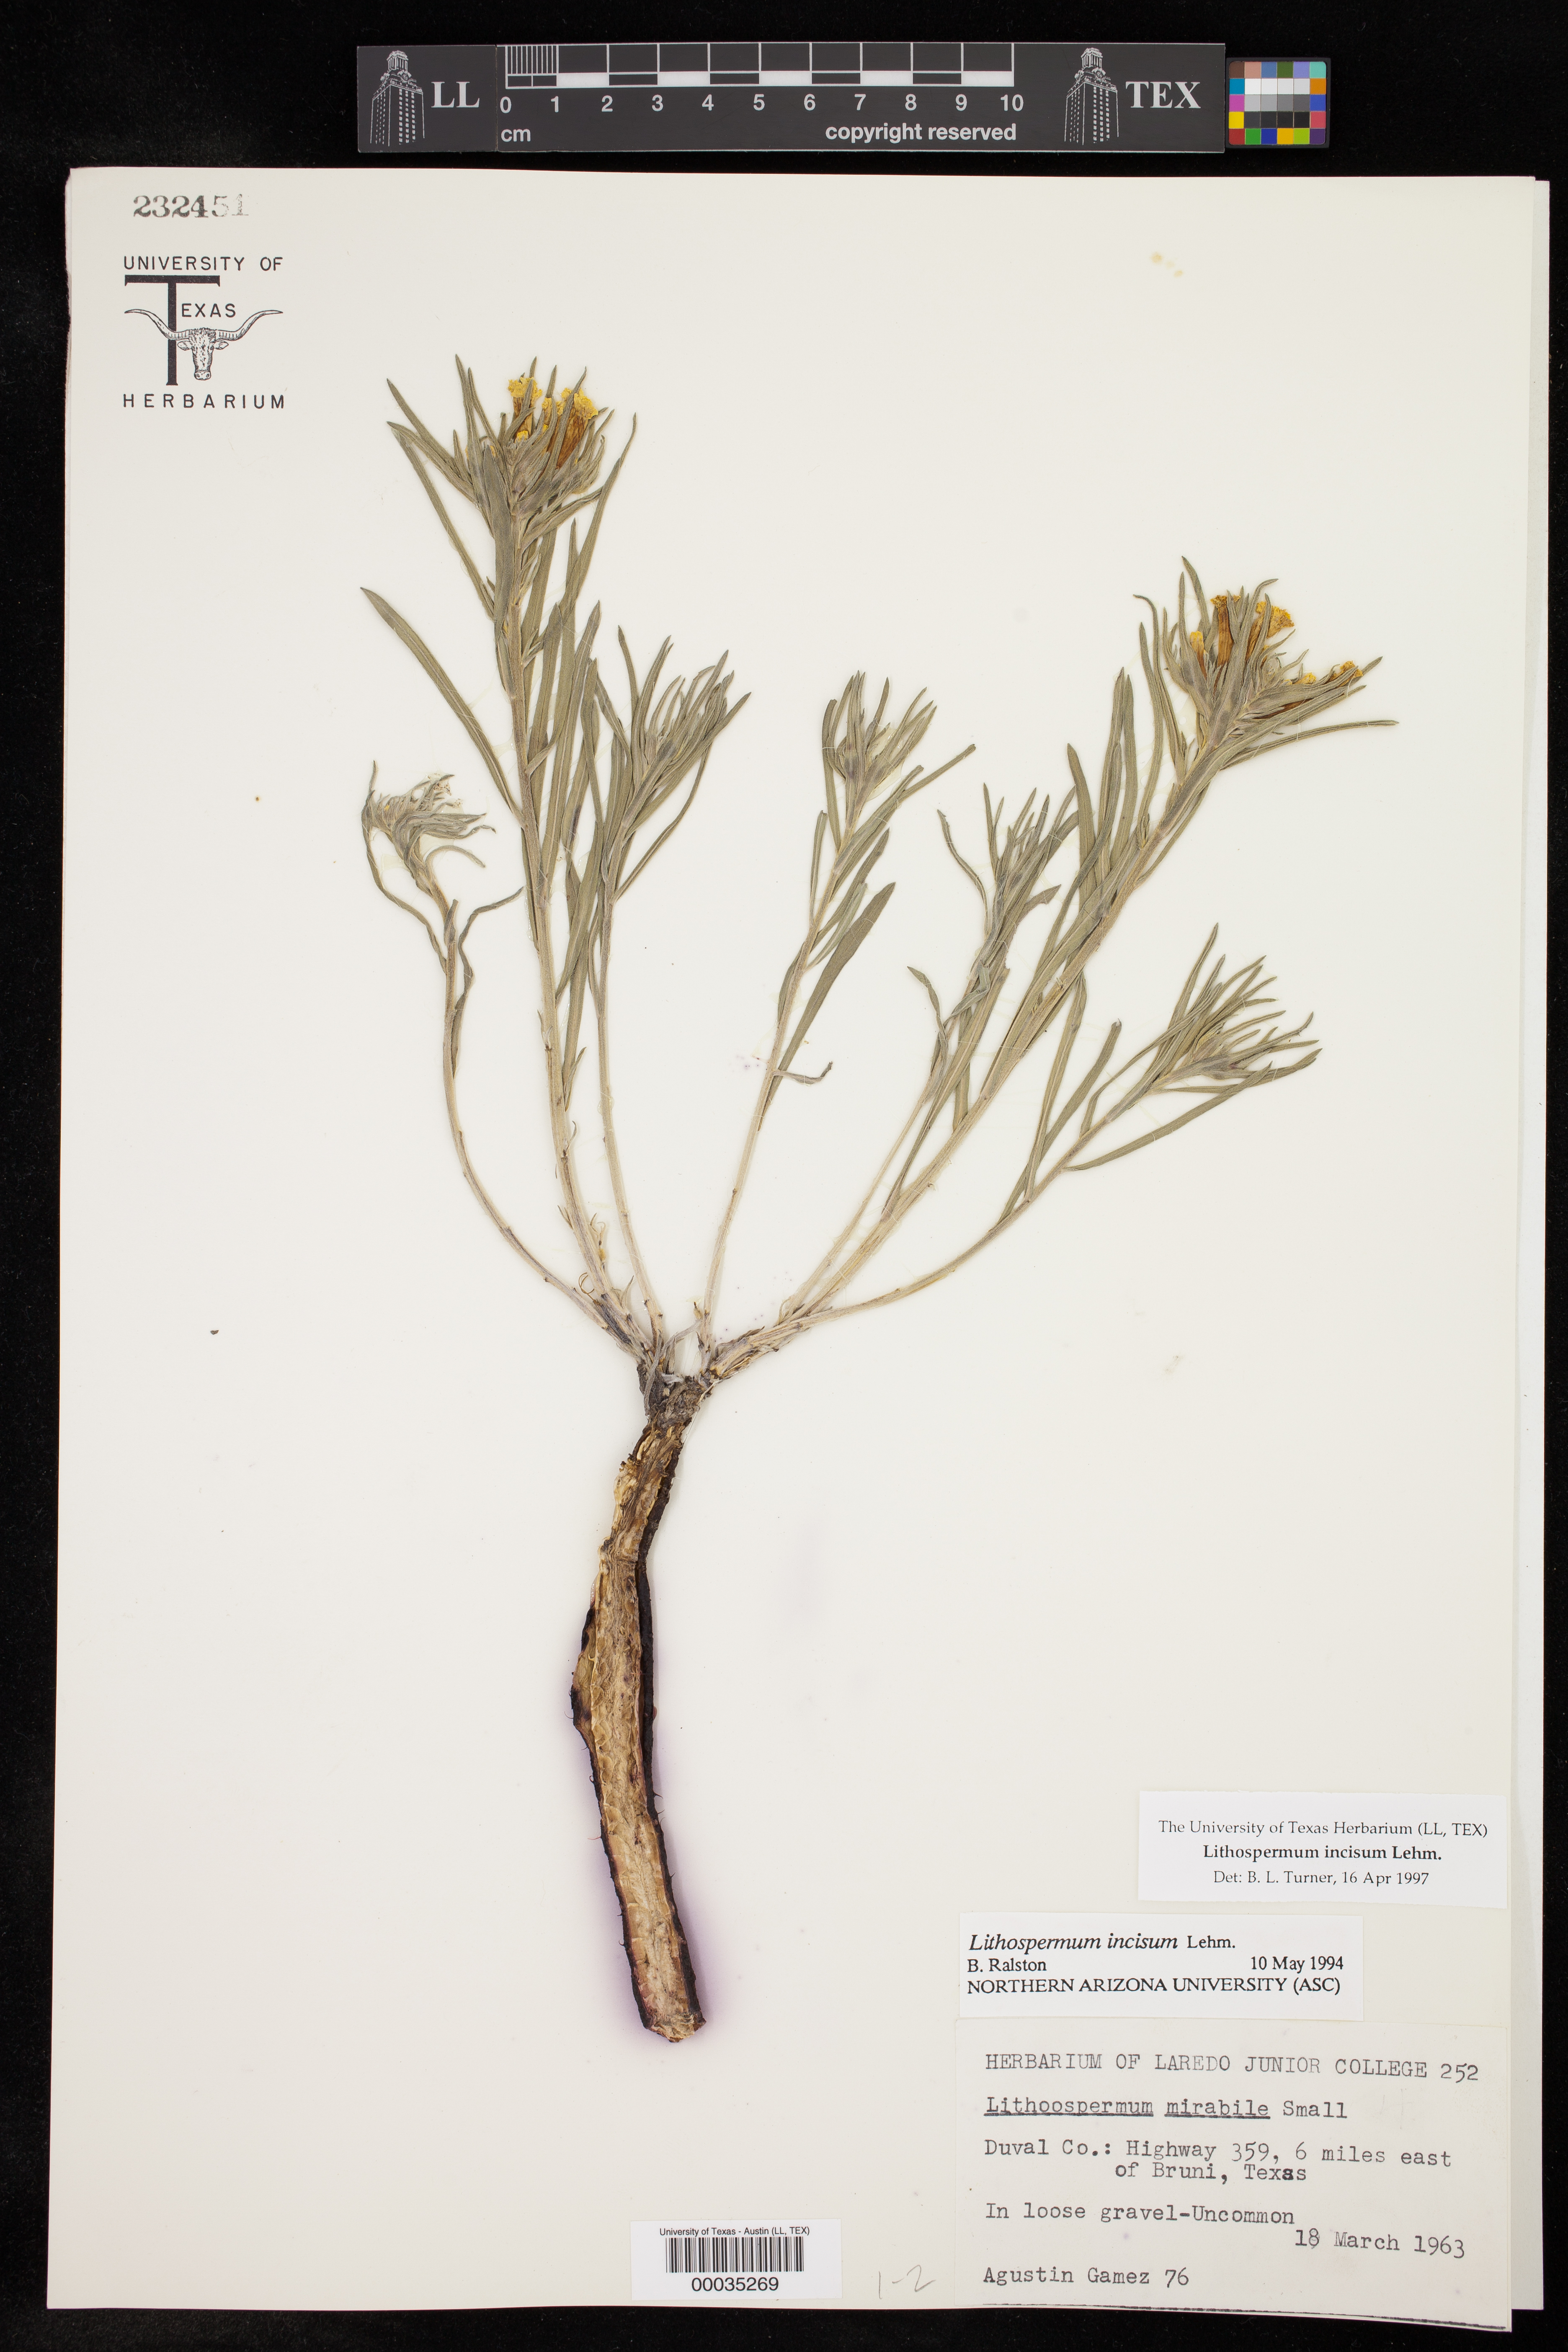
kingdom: Plantae
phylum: Tracheophyta
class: Magnoliopsida
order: Boraginales
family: Boraginaceae
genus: Lithospermum
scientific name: Lithospermum incisum
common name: Fringed gromwell
